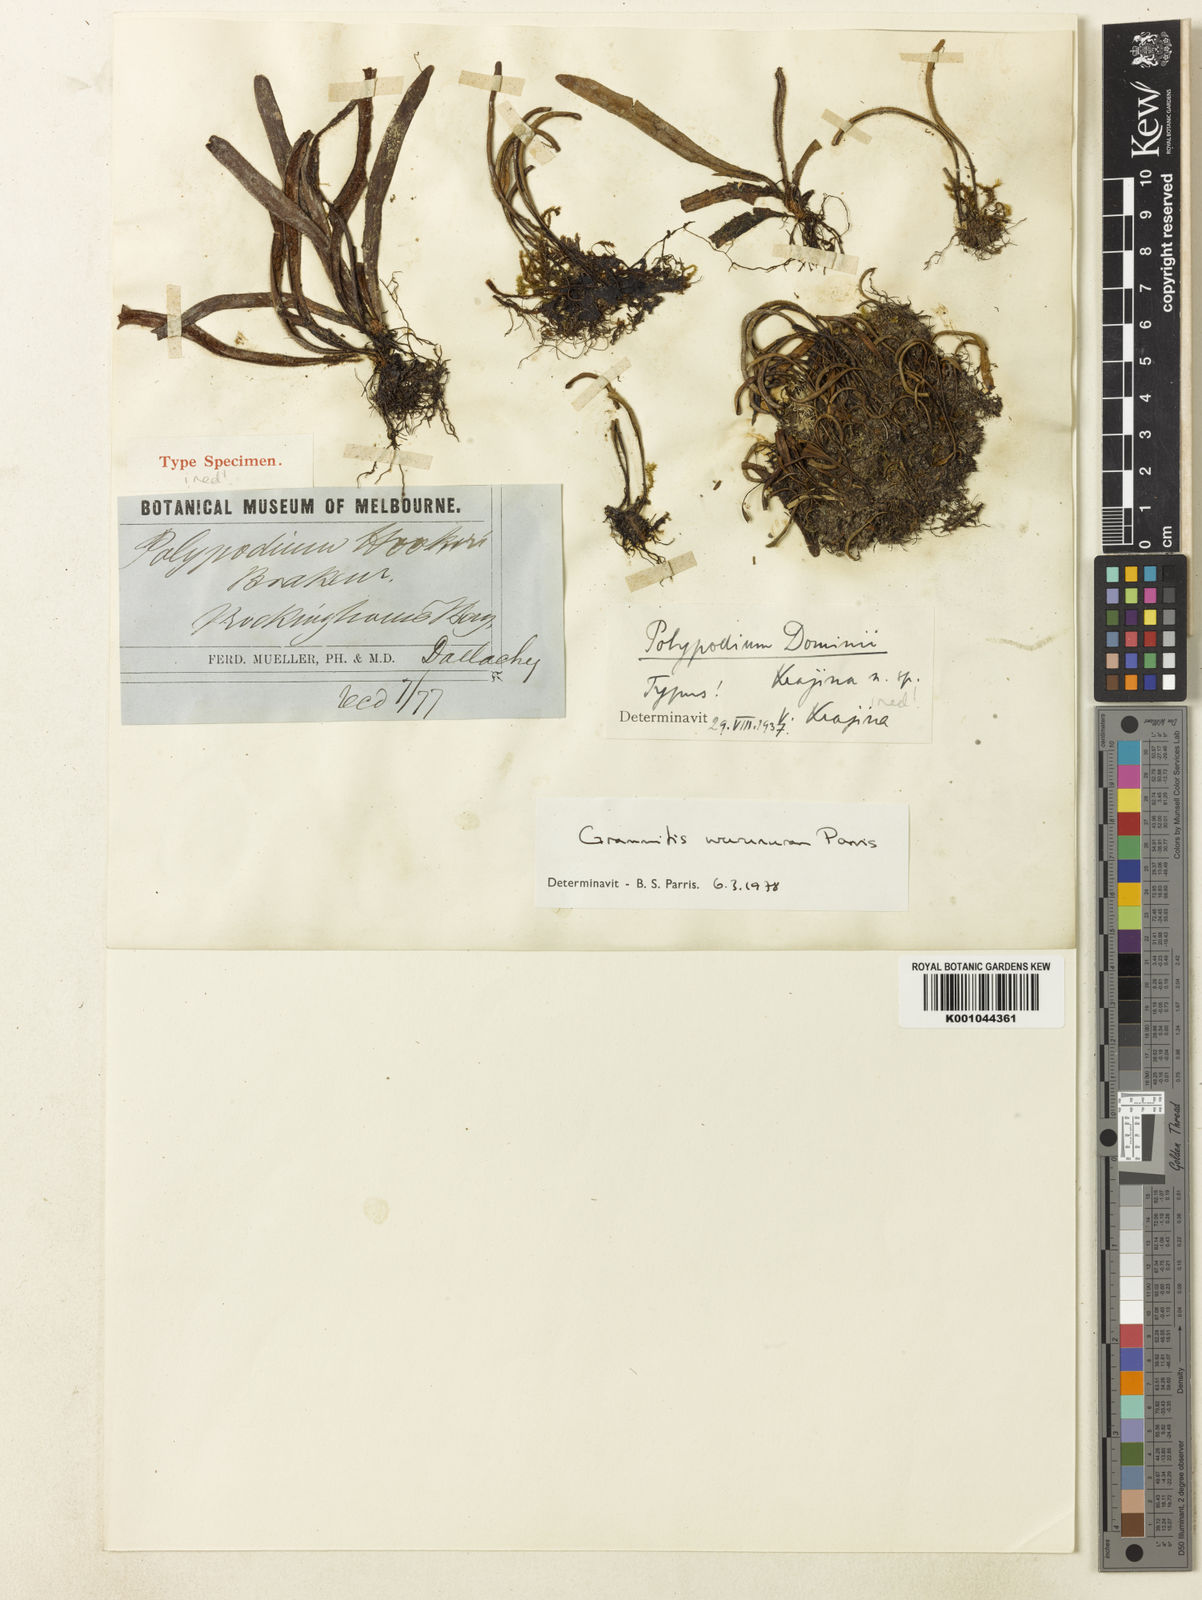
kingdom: Plantae
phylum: Tracheophyta
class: Polypodiopsida
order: Polypodiales
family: Polypodiaceae
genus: Oreogrammitis
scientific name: Oreogrammitis wurunuran
